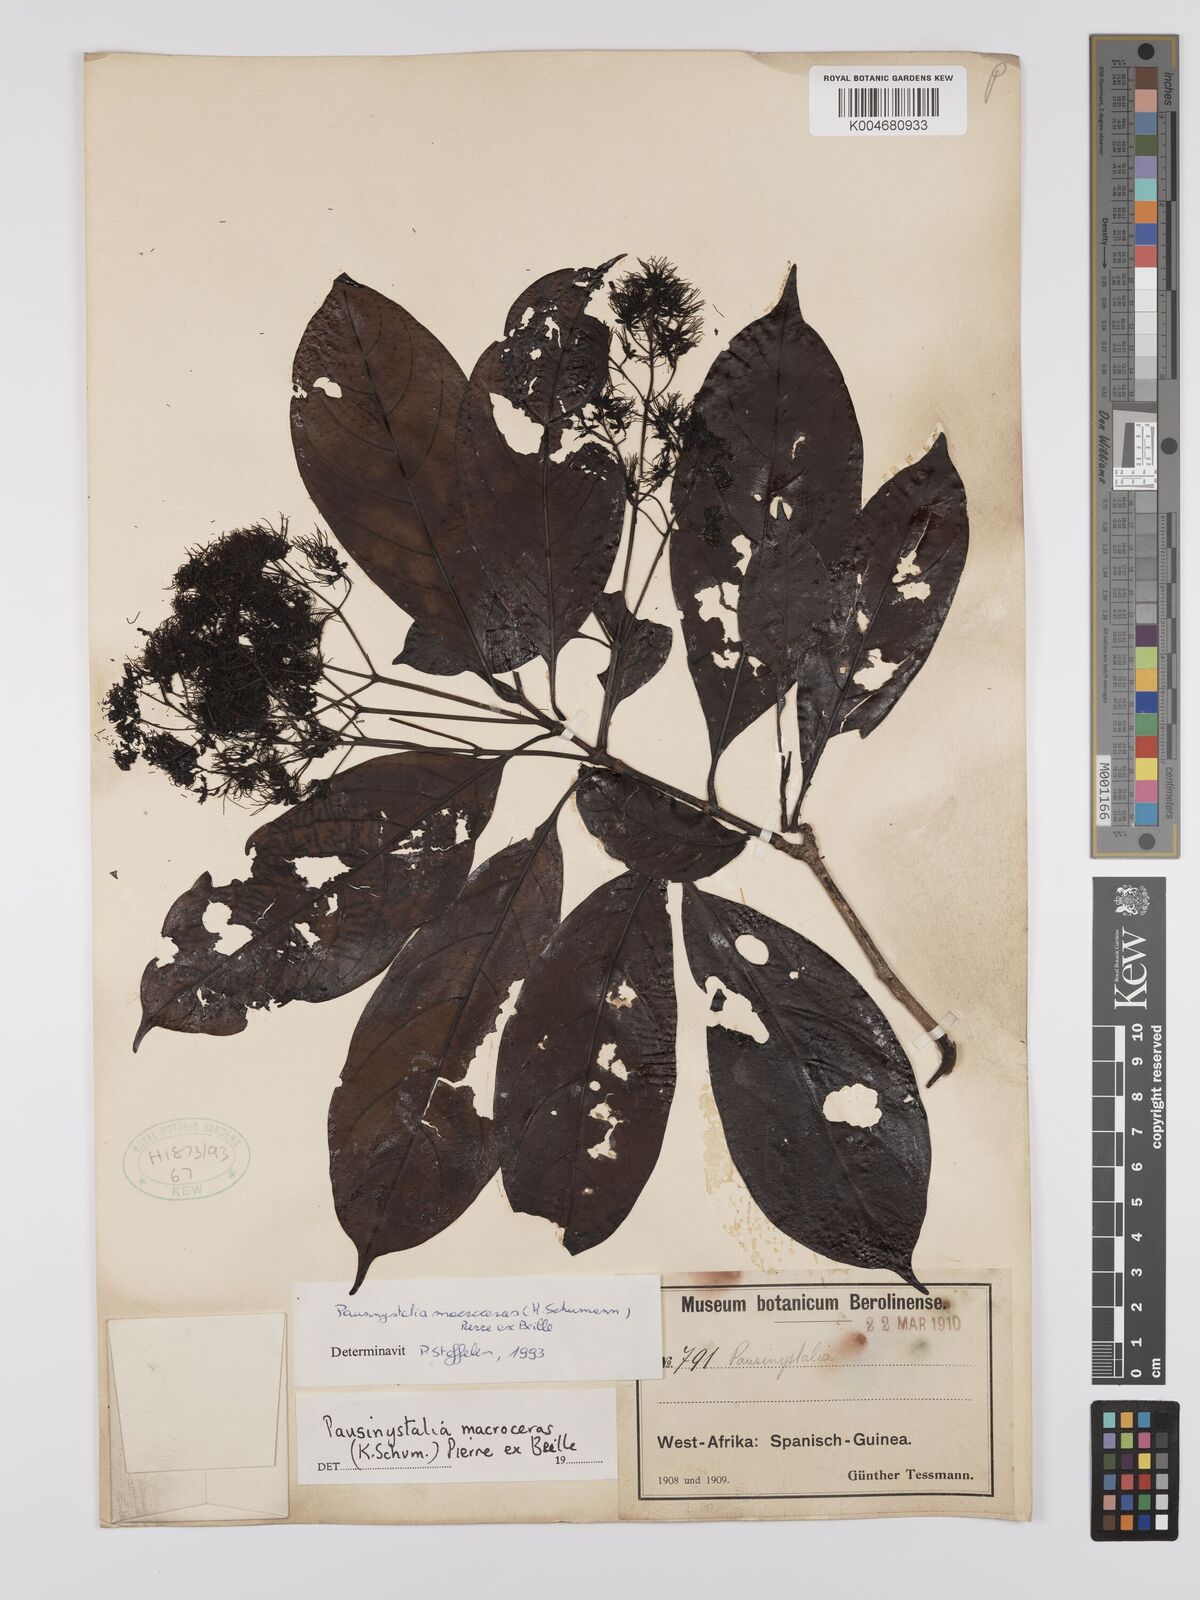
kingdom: Plantae
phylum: Tracheophyta
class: Magnoliopsida
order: Gentianales
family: Rubiaceae
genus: Corynanthe
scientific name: Corynanthe macroceras
